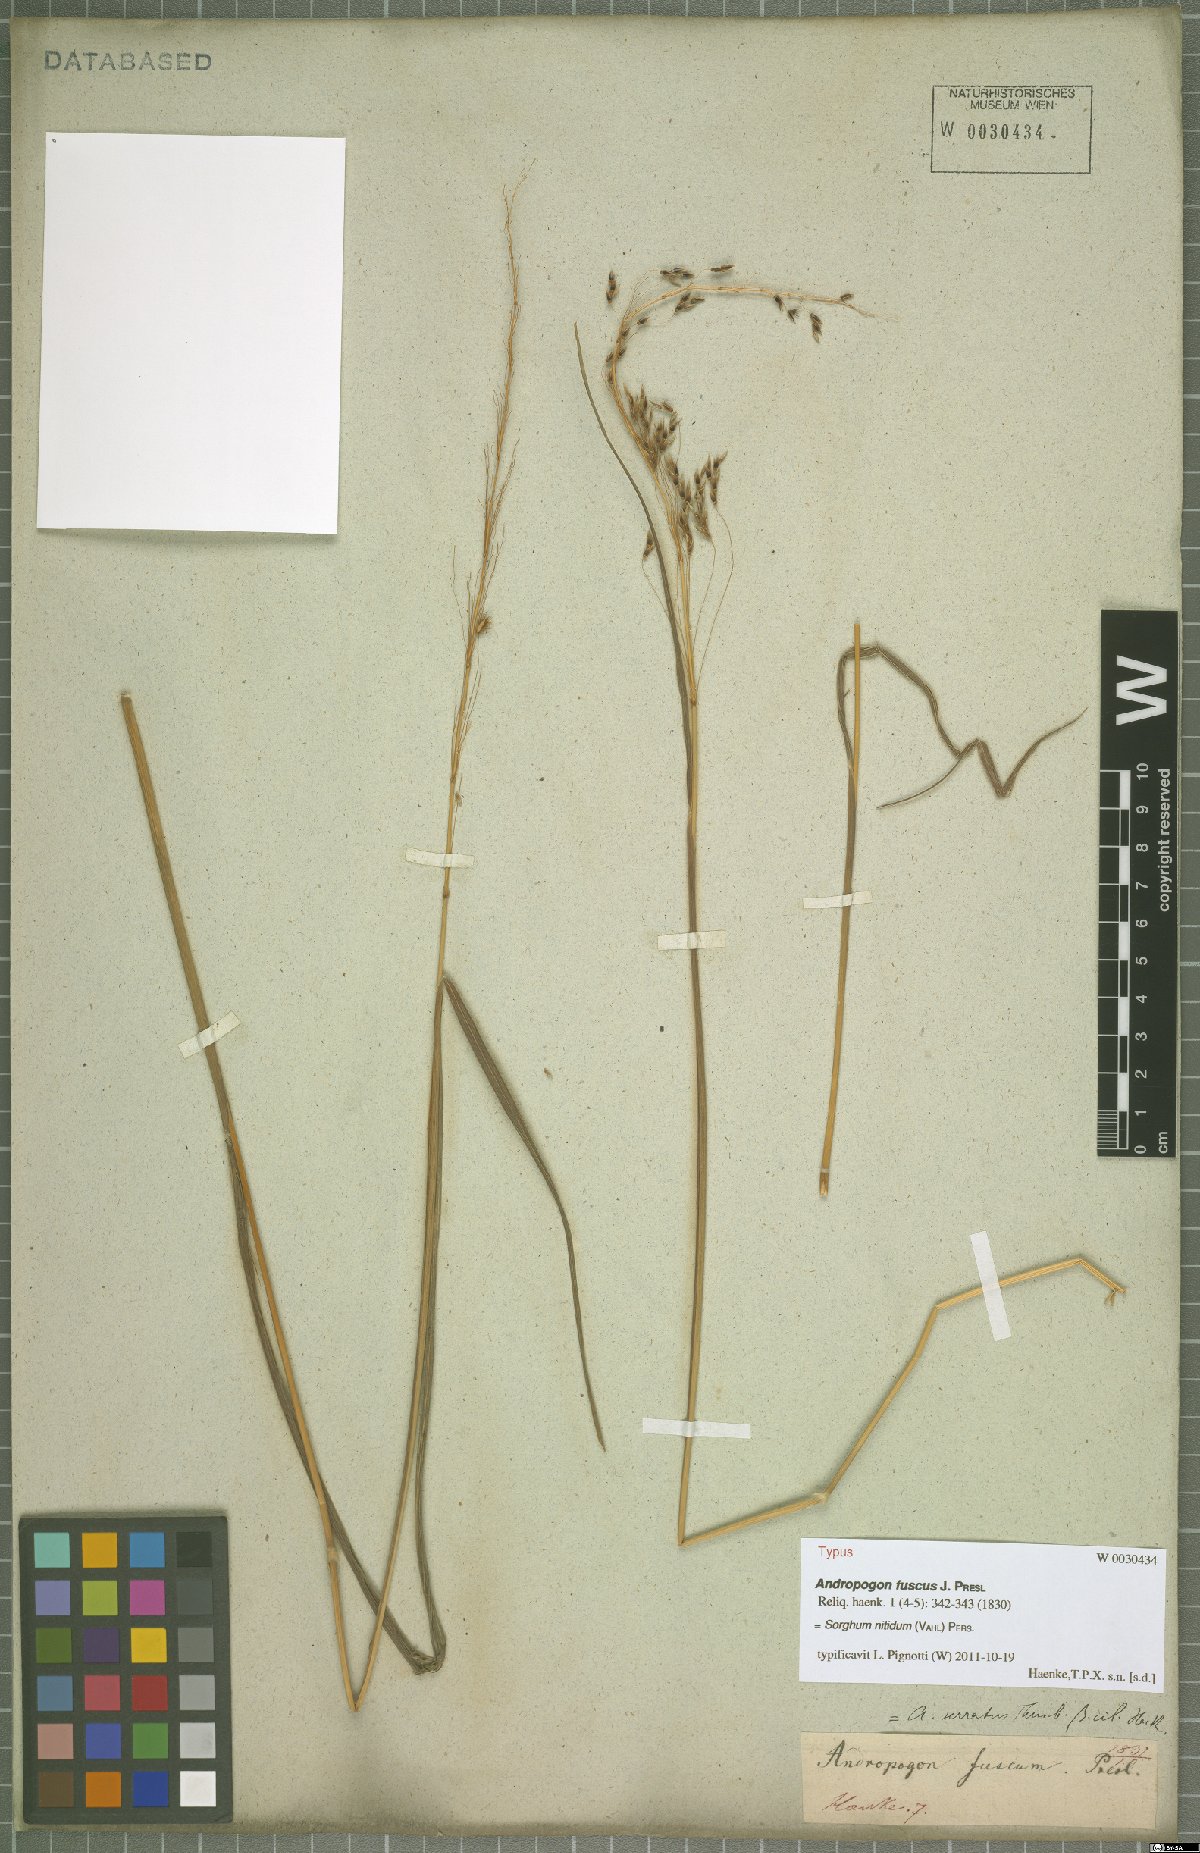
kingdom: Plantae
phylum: Tracheophyta
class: Liliopsida
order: Poales
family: Poaceae
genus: Sorghum
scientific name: Sorghum nitidum
